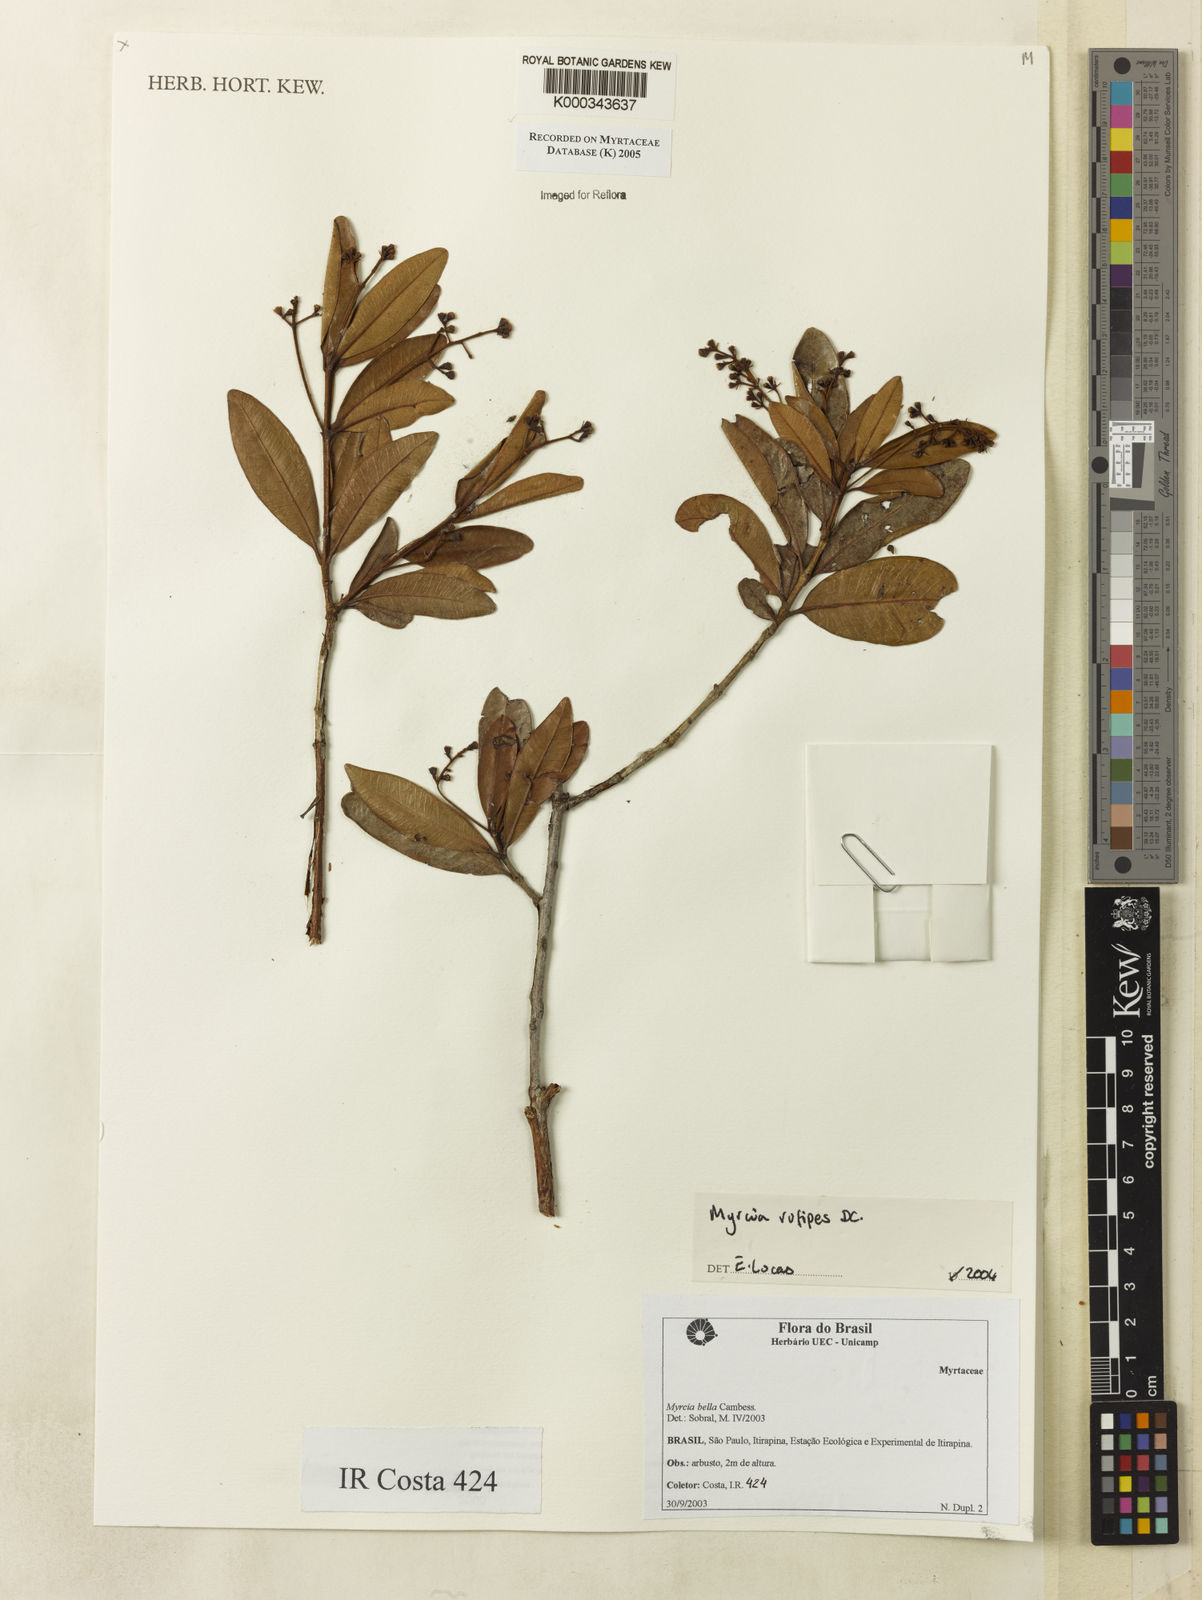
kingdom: Plantae
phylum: Tracheophyta
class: Magnoliopsida
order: Myrtales
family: Myrtaceae
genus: Myrcia
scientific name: Myrcia rufipes
